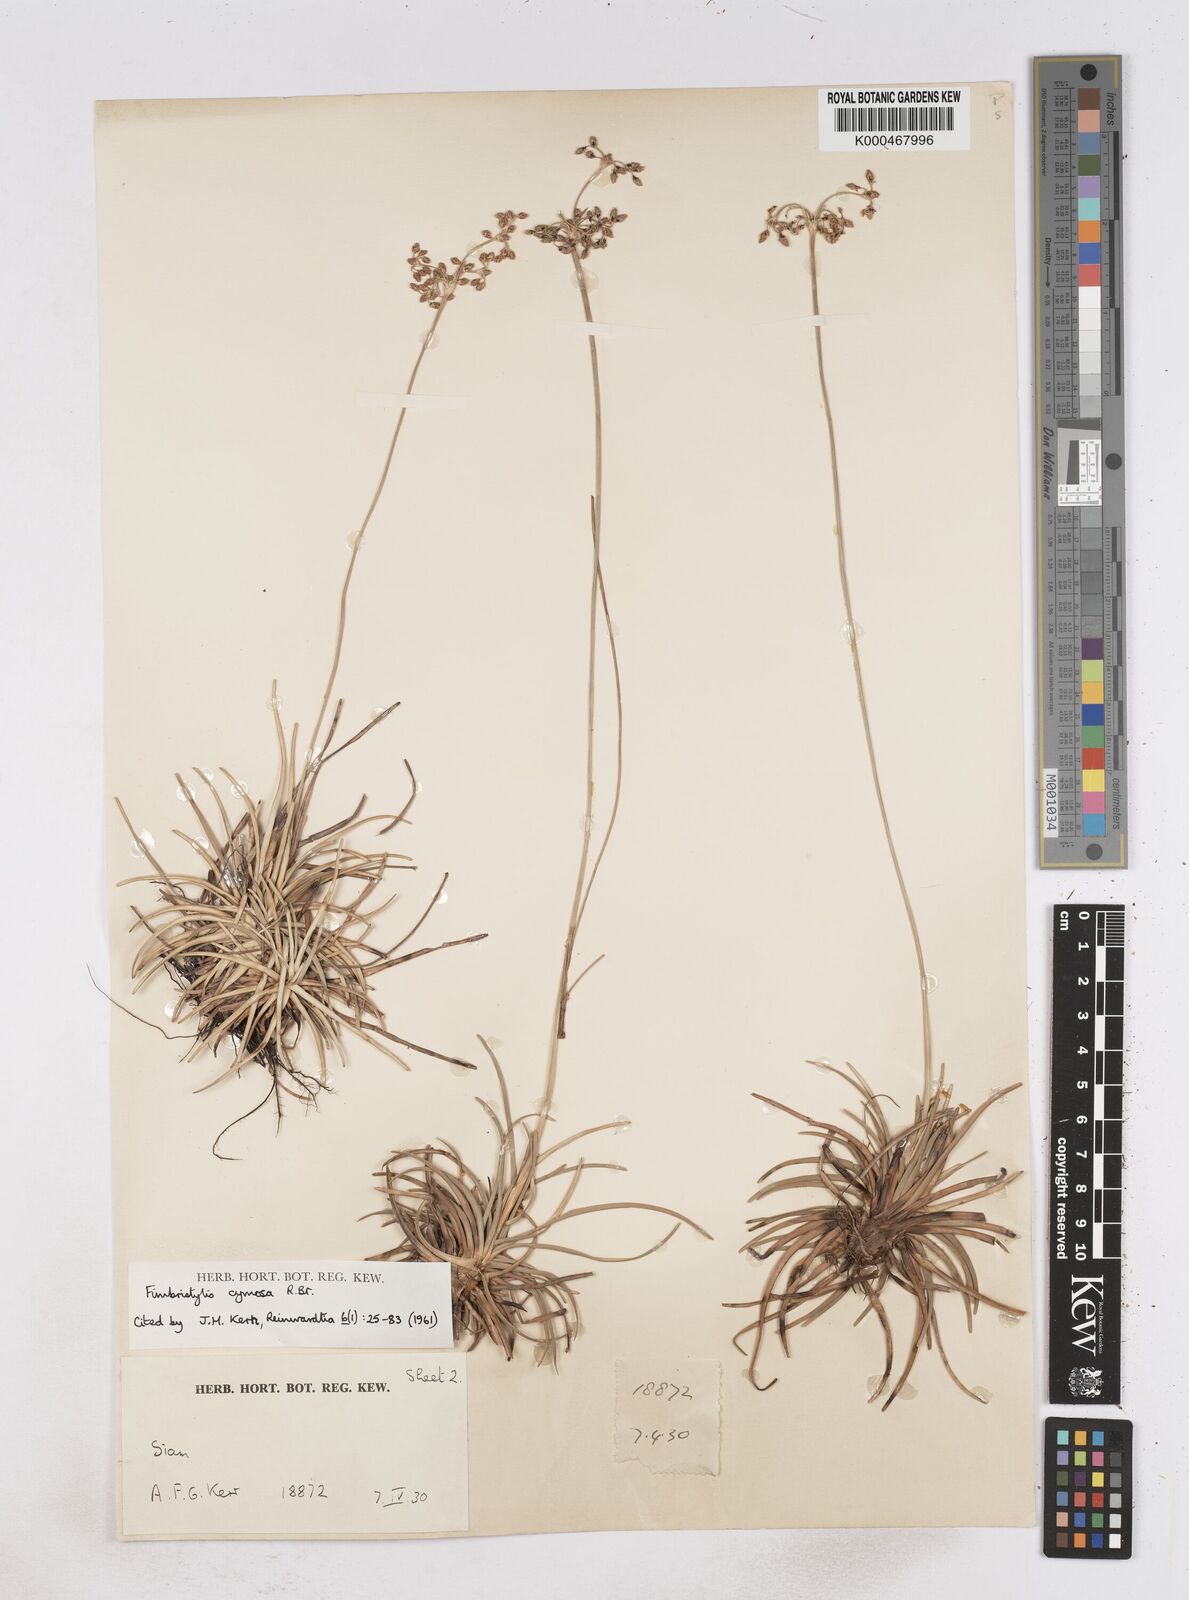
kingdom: Plantae
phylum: Tracheophyta
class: Liliopsida
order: Poales
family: Cyperaceae
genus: Fimbristylis
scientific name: Fimbristylis cymosa
